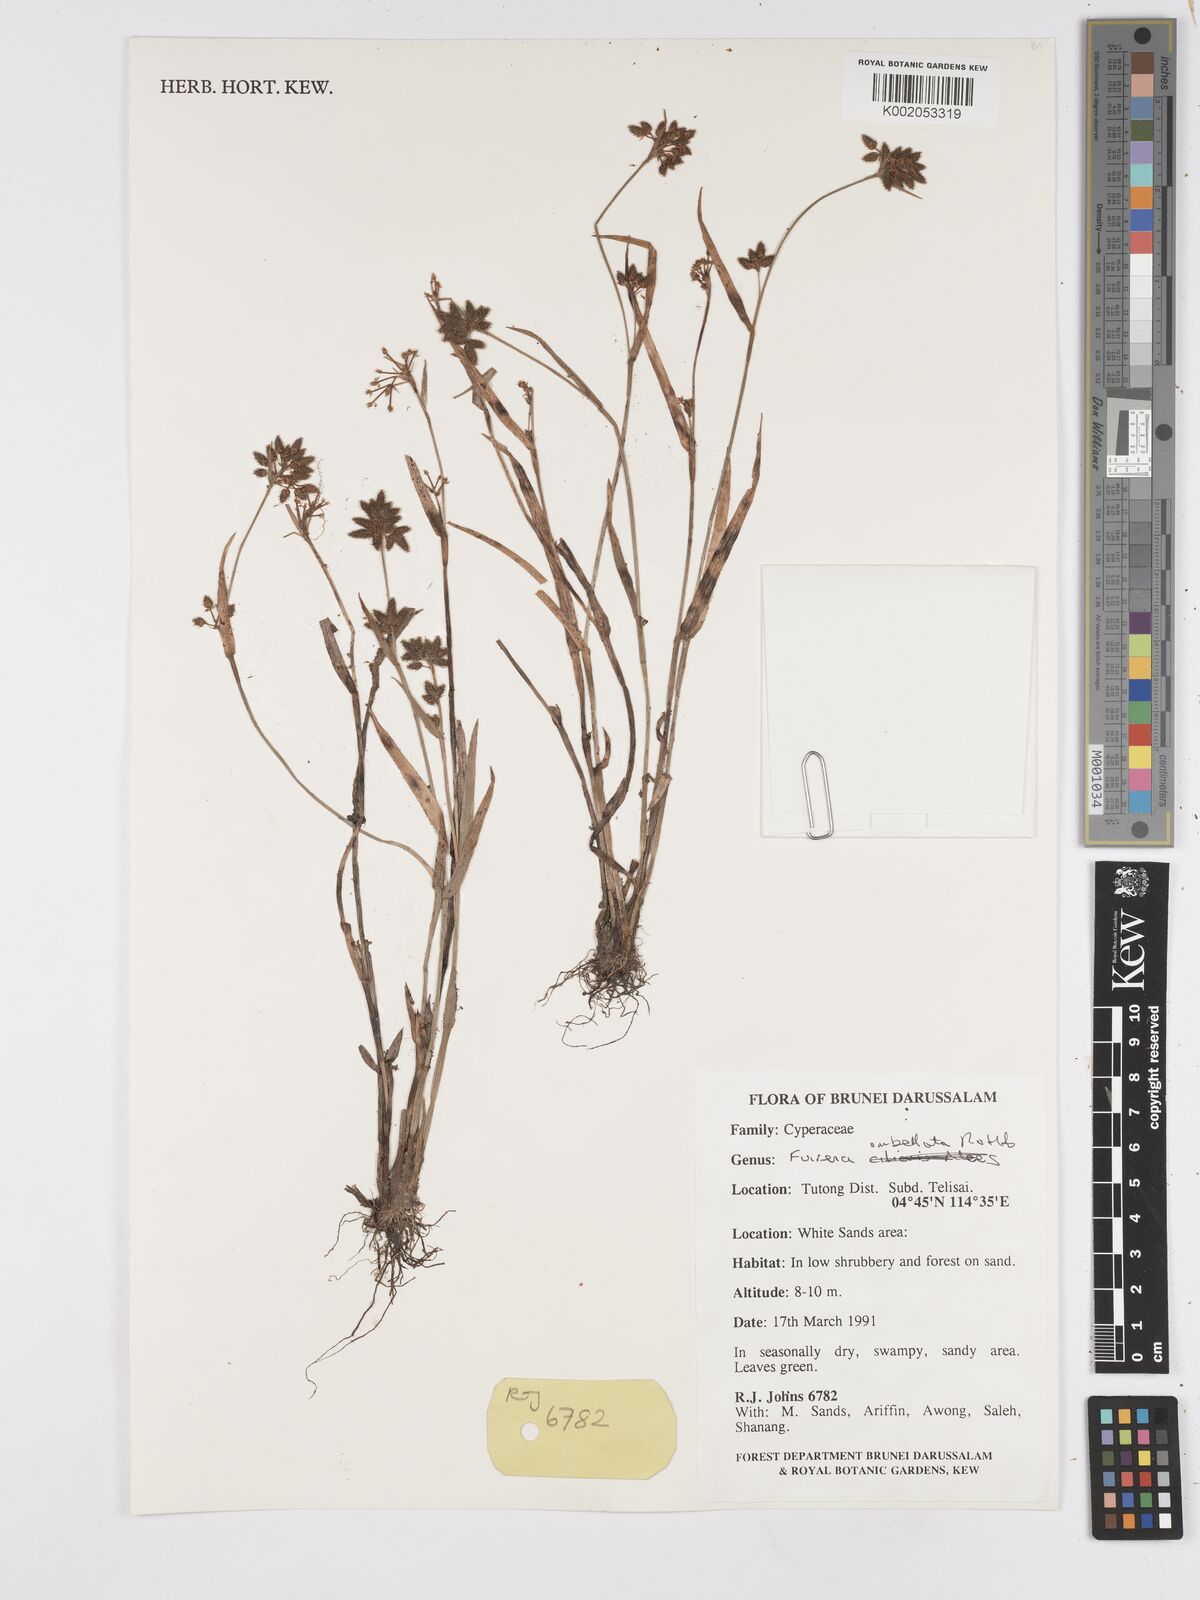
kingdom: Plantae
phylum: Tracheophyta
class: Liliopsida
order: Poales
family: Cyperaceae
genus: Fuirena
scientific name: Fuirena umbellata
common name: Yefen
